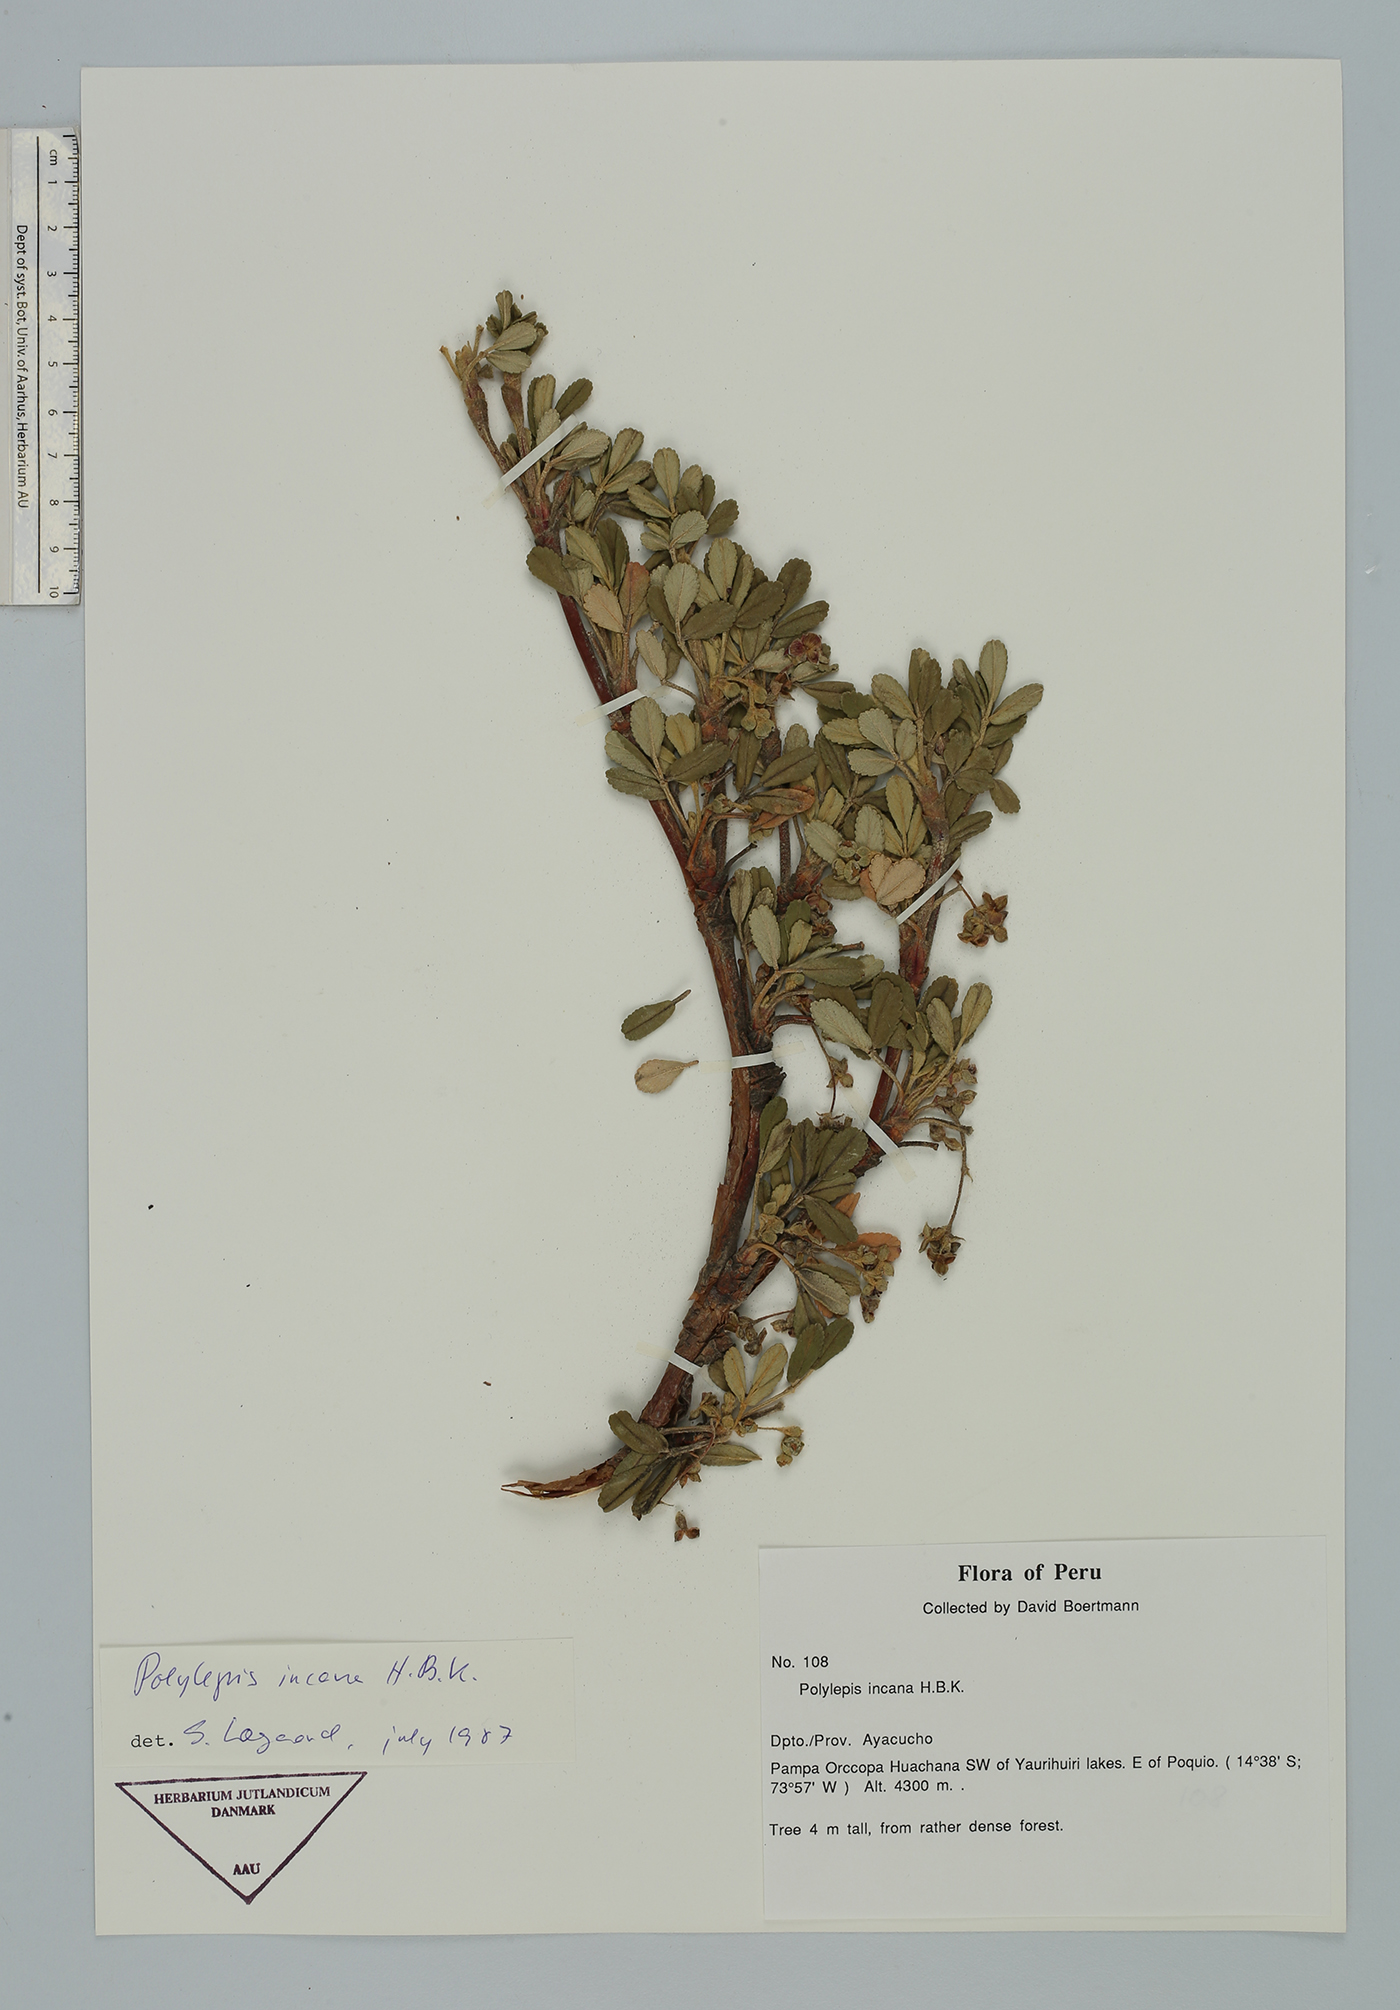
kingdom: Plantae
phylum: Tracheophyta
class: Magnoliopsida
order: Rosales
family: Rosaceae
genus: Polylepis
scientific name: Polylepis tomentella
